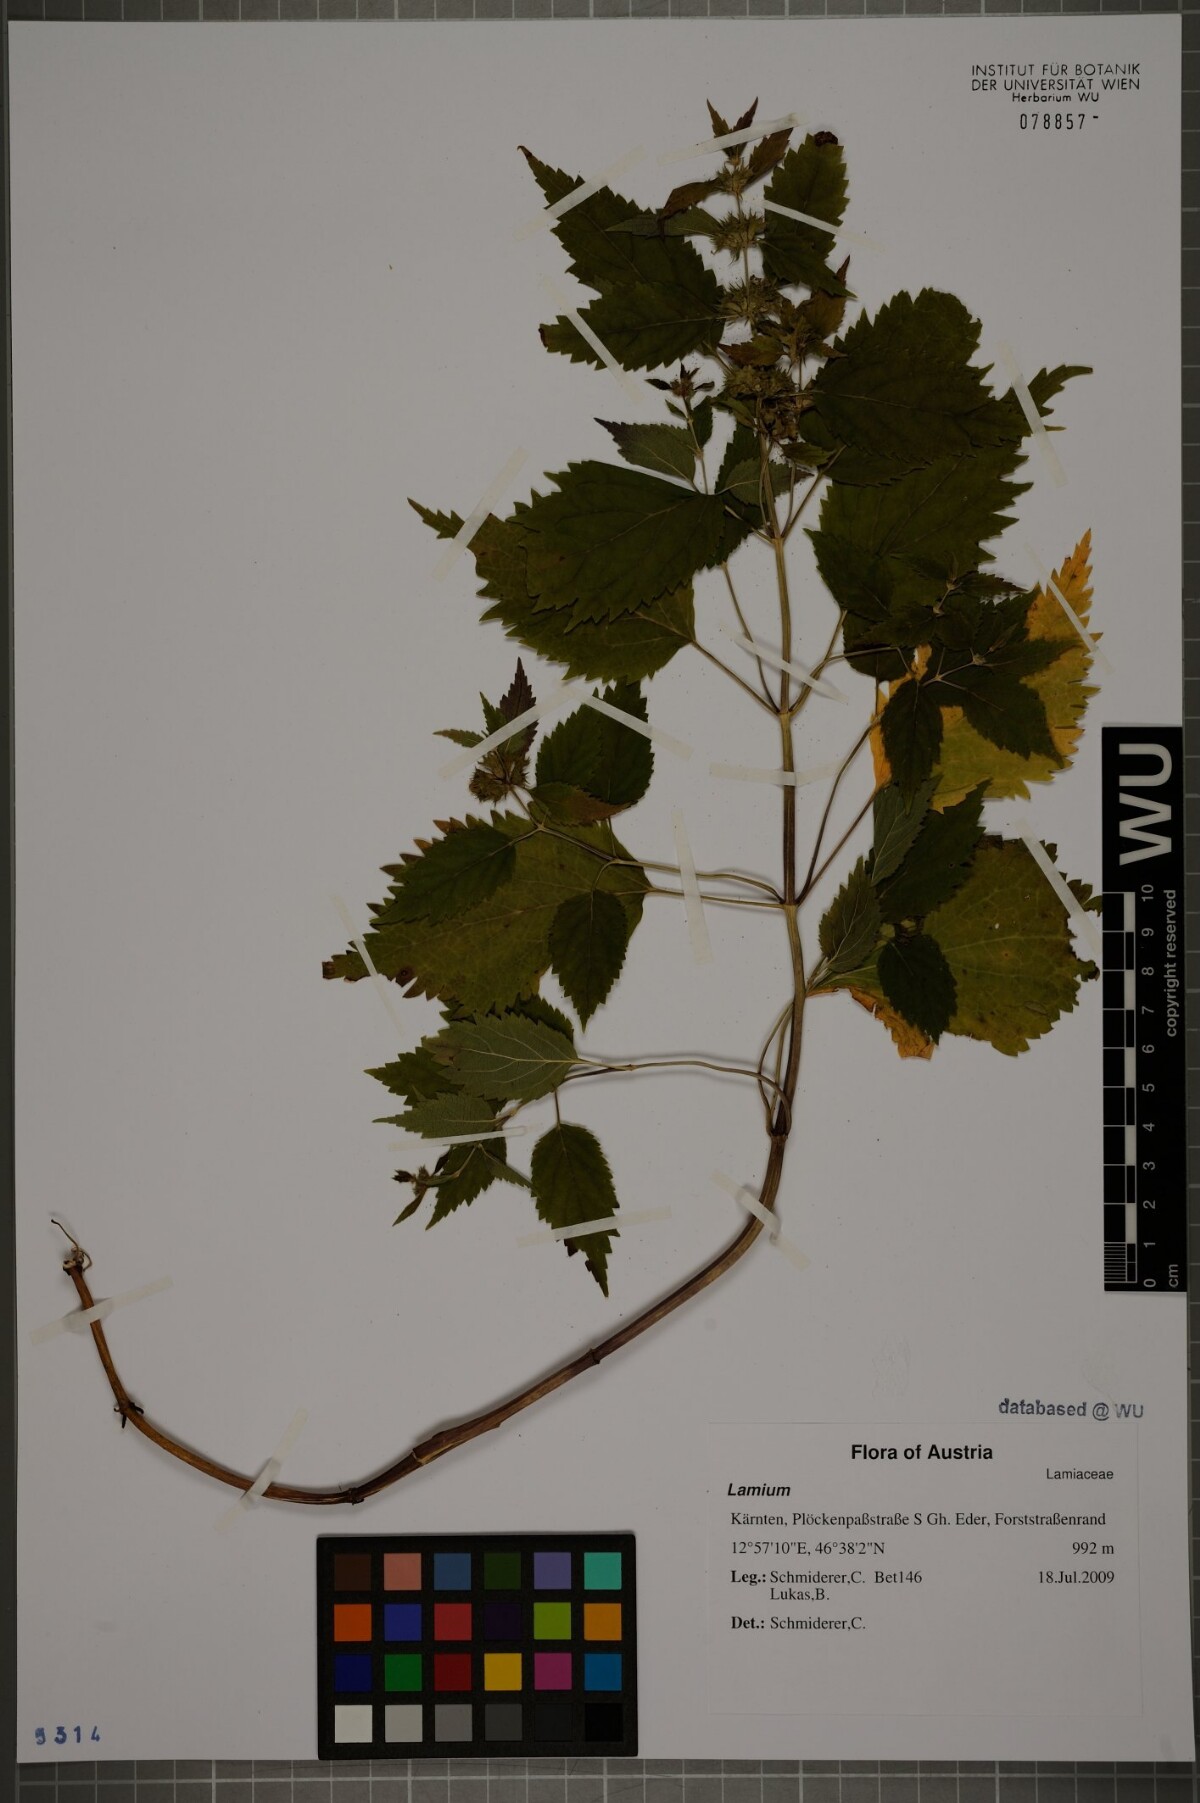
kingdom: Plantae
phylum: Tracheophyta
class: Magnoliopsida
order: Lamiales
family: Lamiaceae
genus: Lamium
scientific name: Lamium
